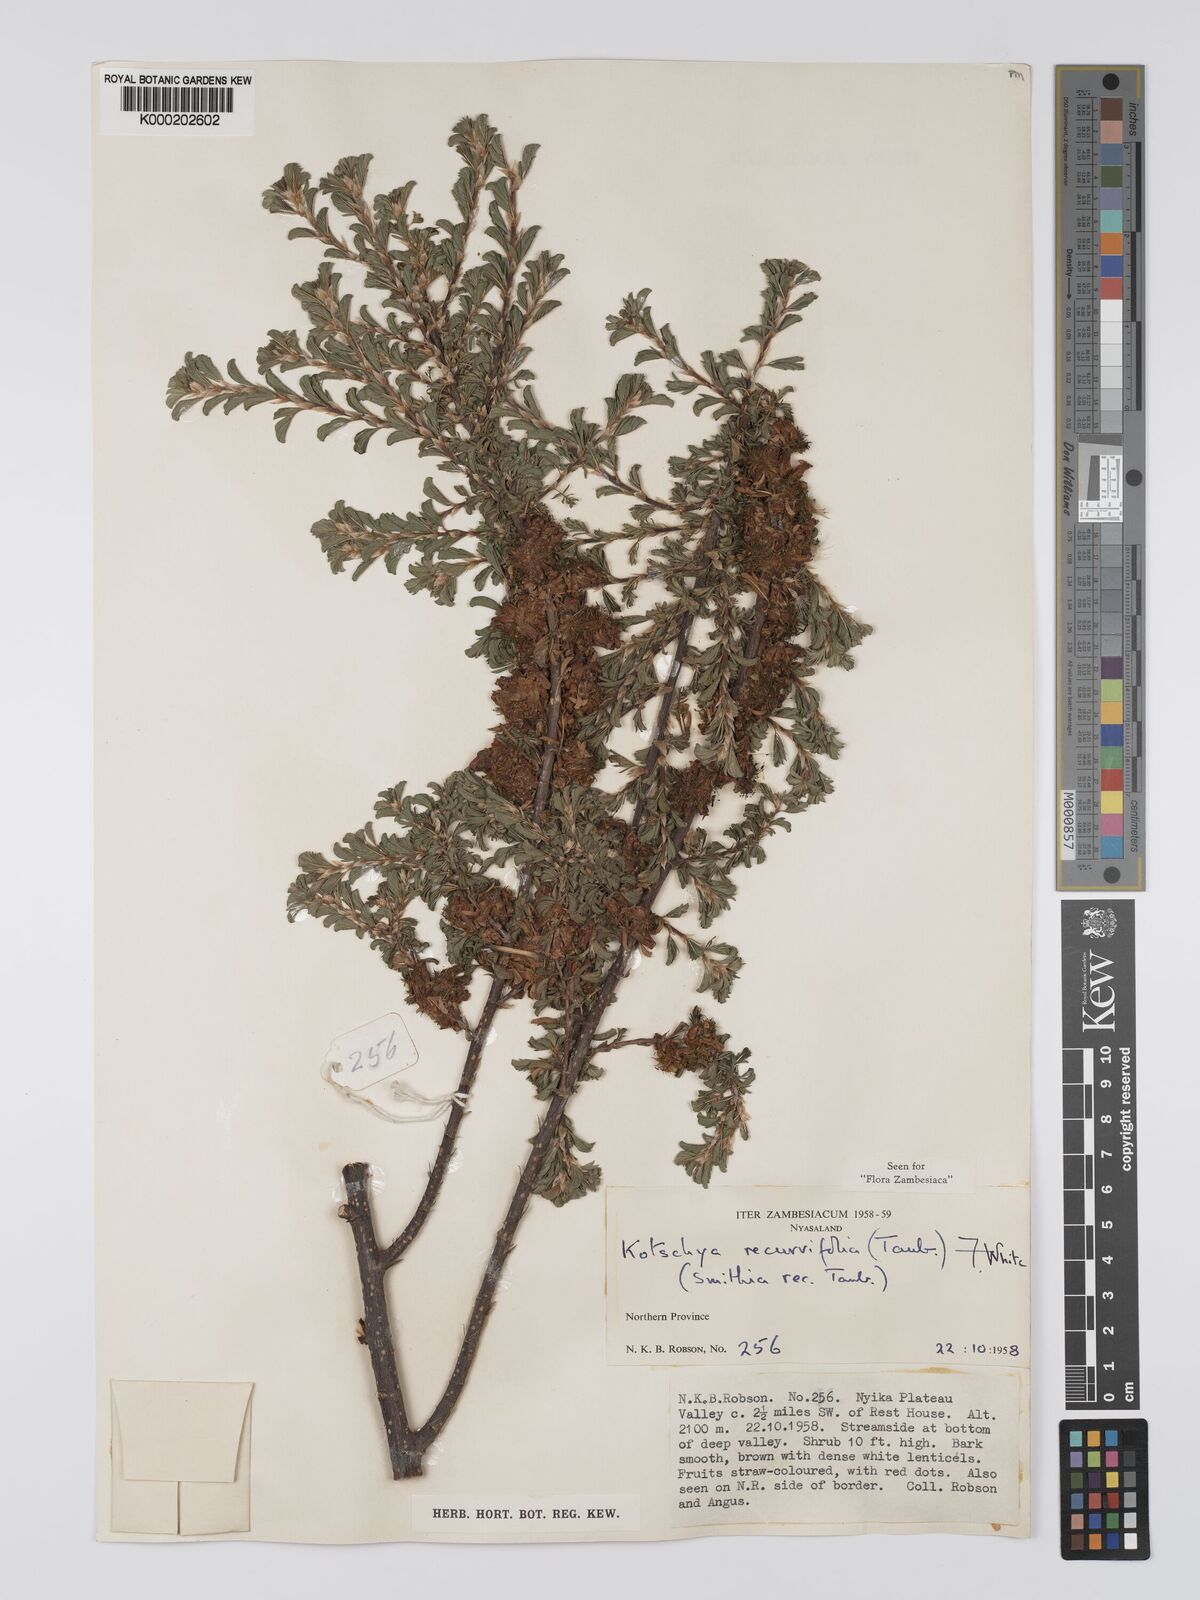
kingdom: Plantae
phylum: Tracheophyta
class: Magnoliopsida
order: Fabales
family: Fabaceae
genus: Kotschya
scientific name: Kotschya recurvifolia
